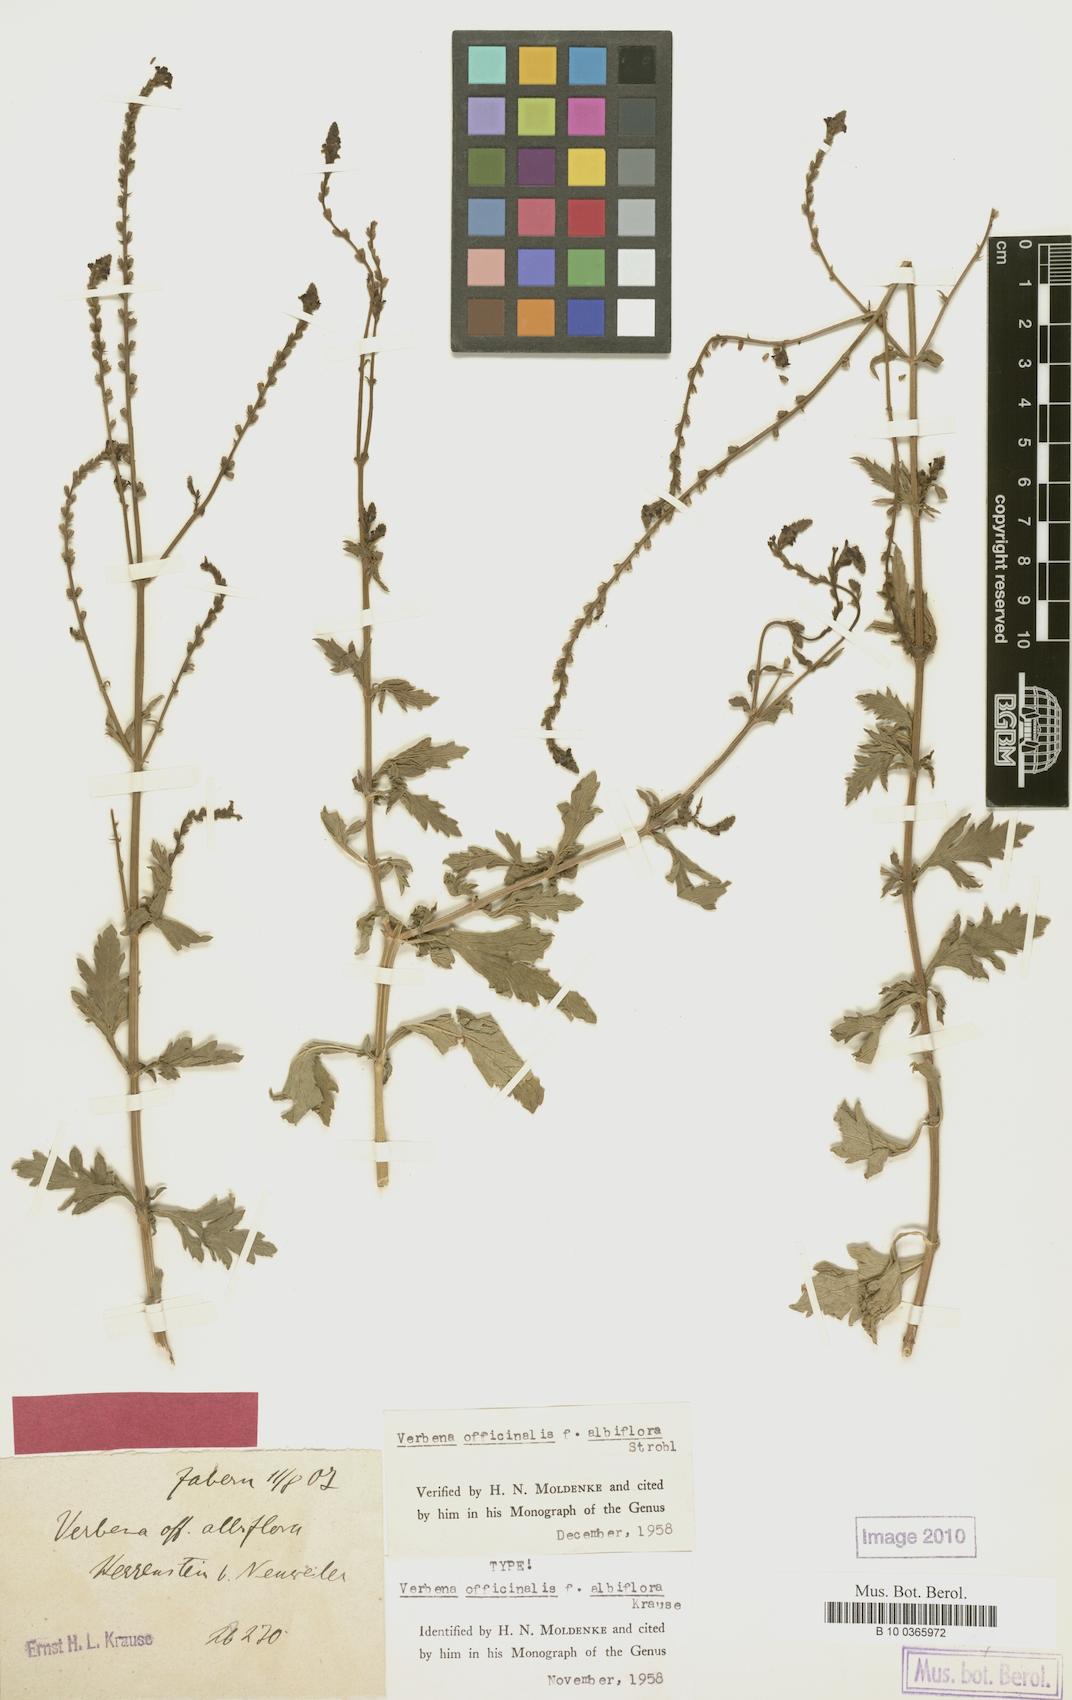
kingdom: Plantae
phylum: Tracheophyta
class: Magnoliopsida
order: Lamiales
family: Verbenaceae
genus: Verbena
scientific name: Verbena officinalis
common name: Vervain
